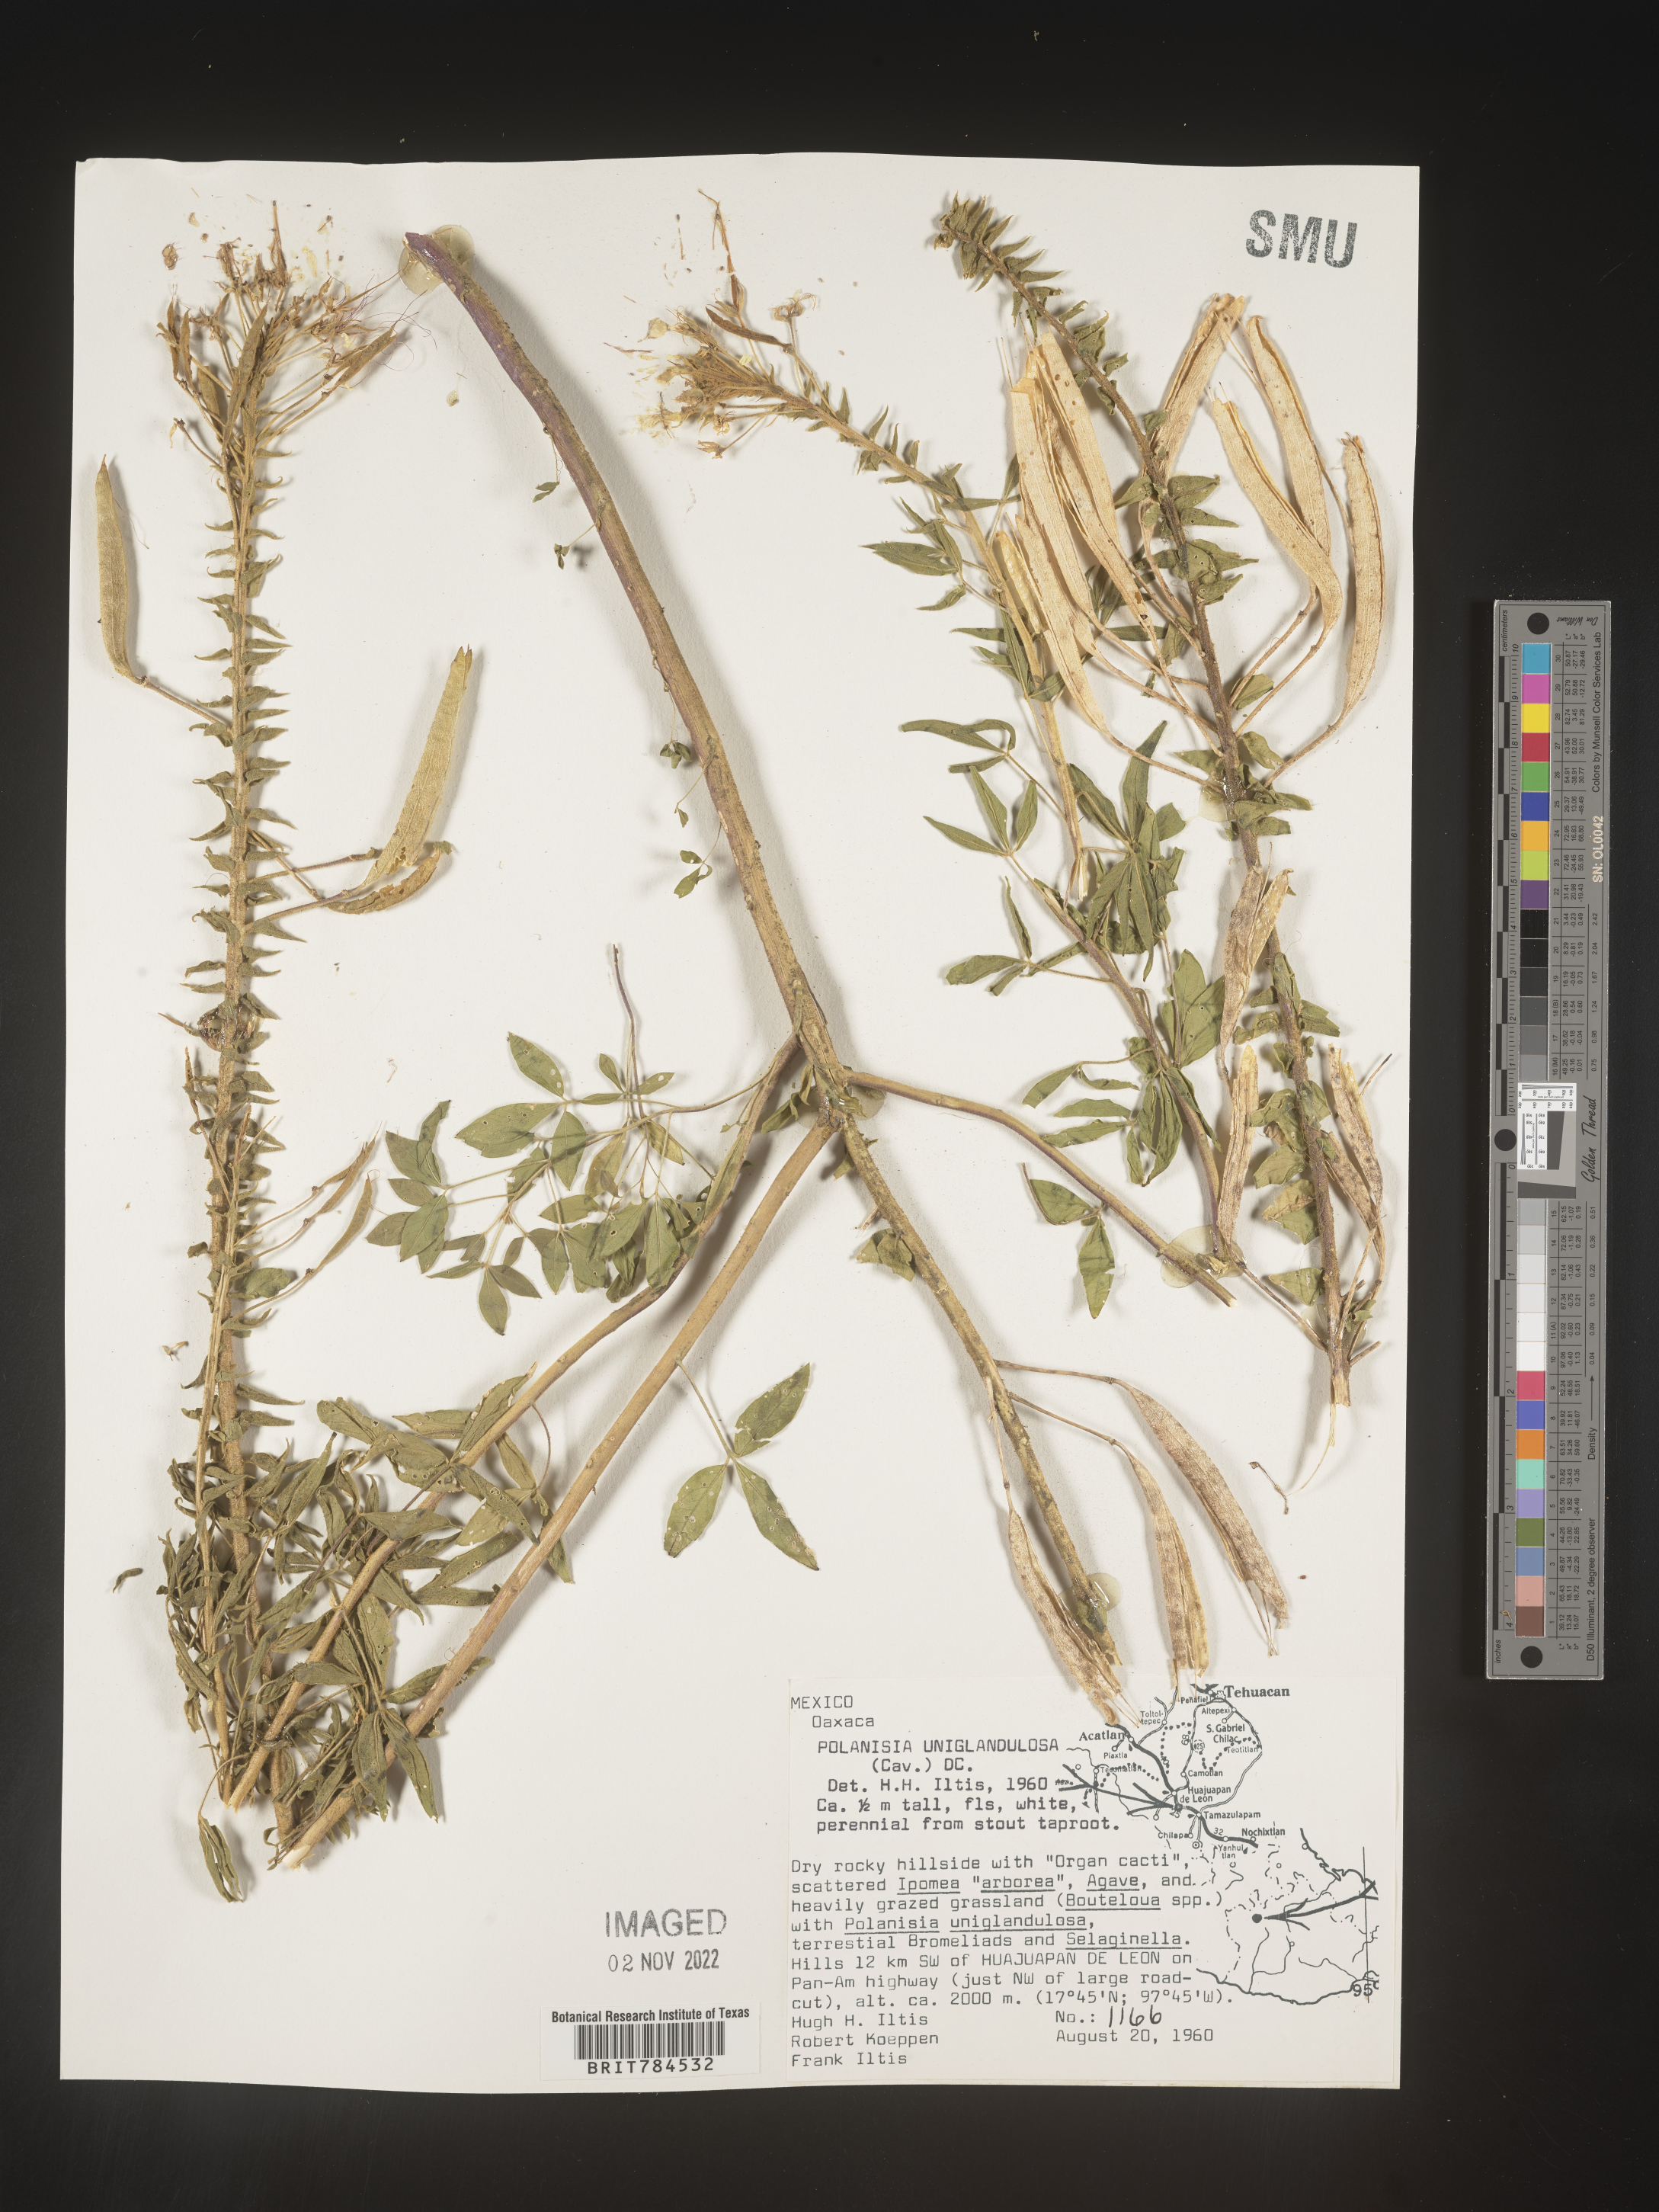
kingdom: Plantae
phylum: Tracheophyta
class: Magnoliopsida
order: Brassicales
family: Cleomaceae
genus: Polanisia
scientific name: Polanisia
